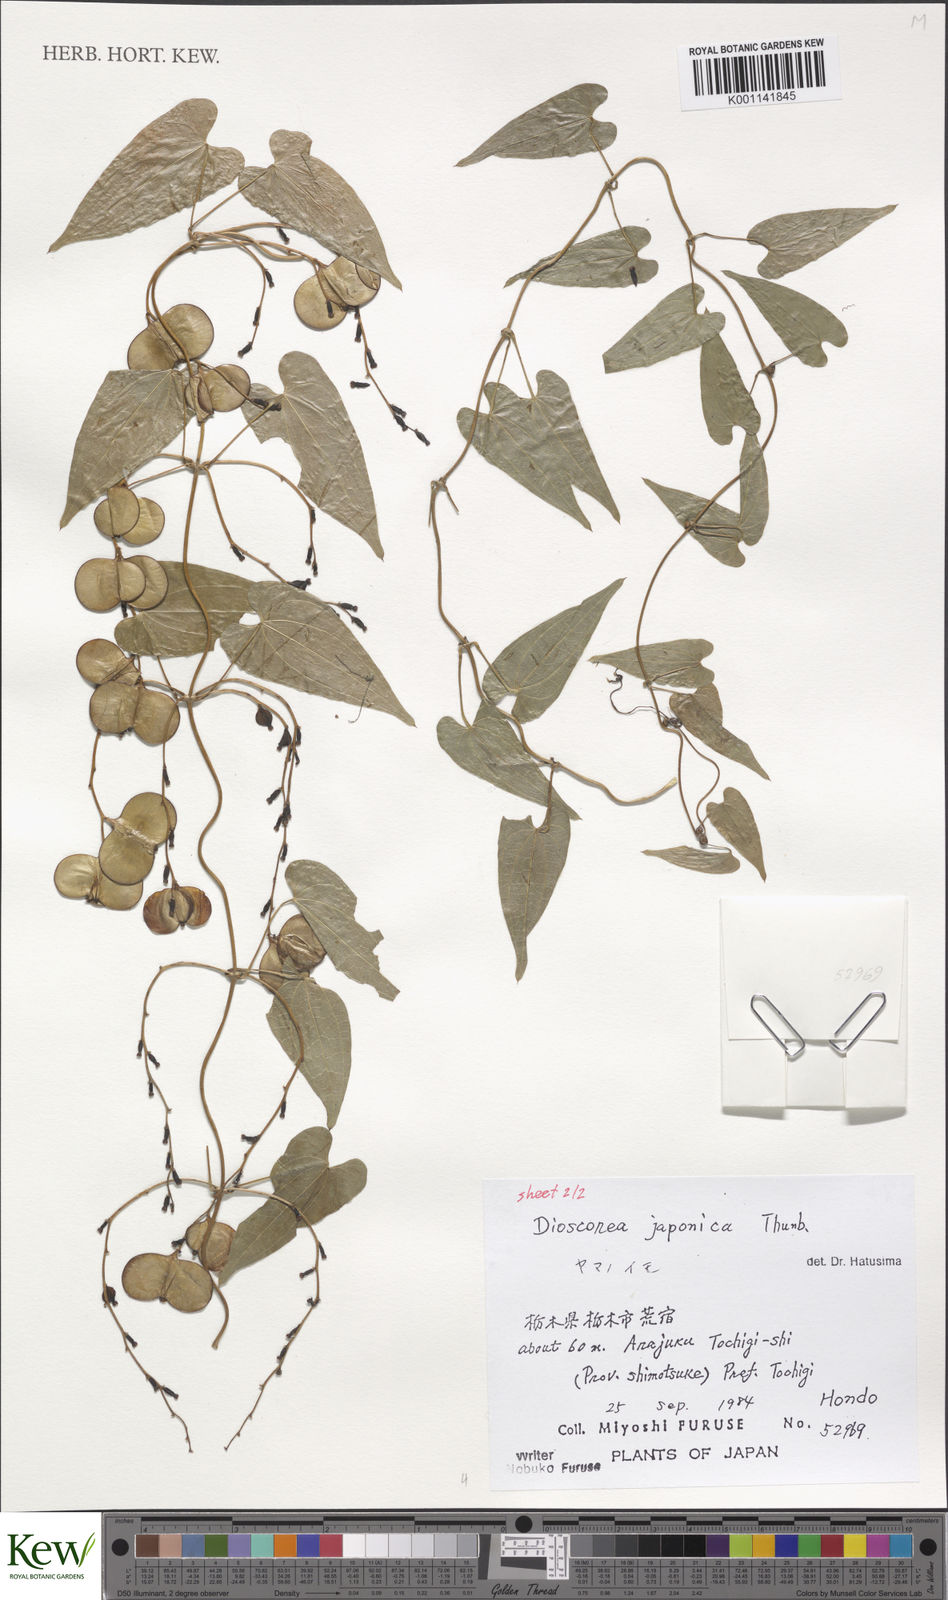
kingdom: Plantae
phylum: Tracheophyta
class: Liliopsida
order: Dioscoreales
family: Dioscoreaceae
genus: Dioscorea
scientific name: Dioscorea japonica
